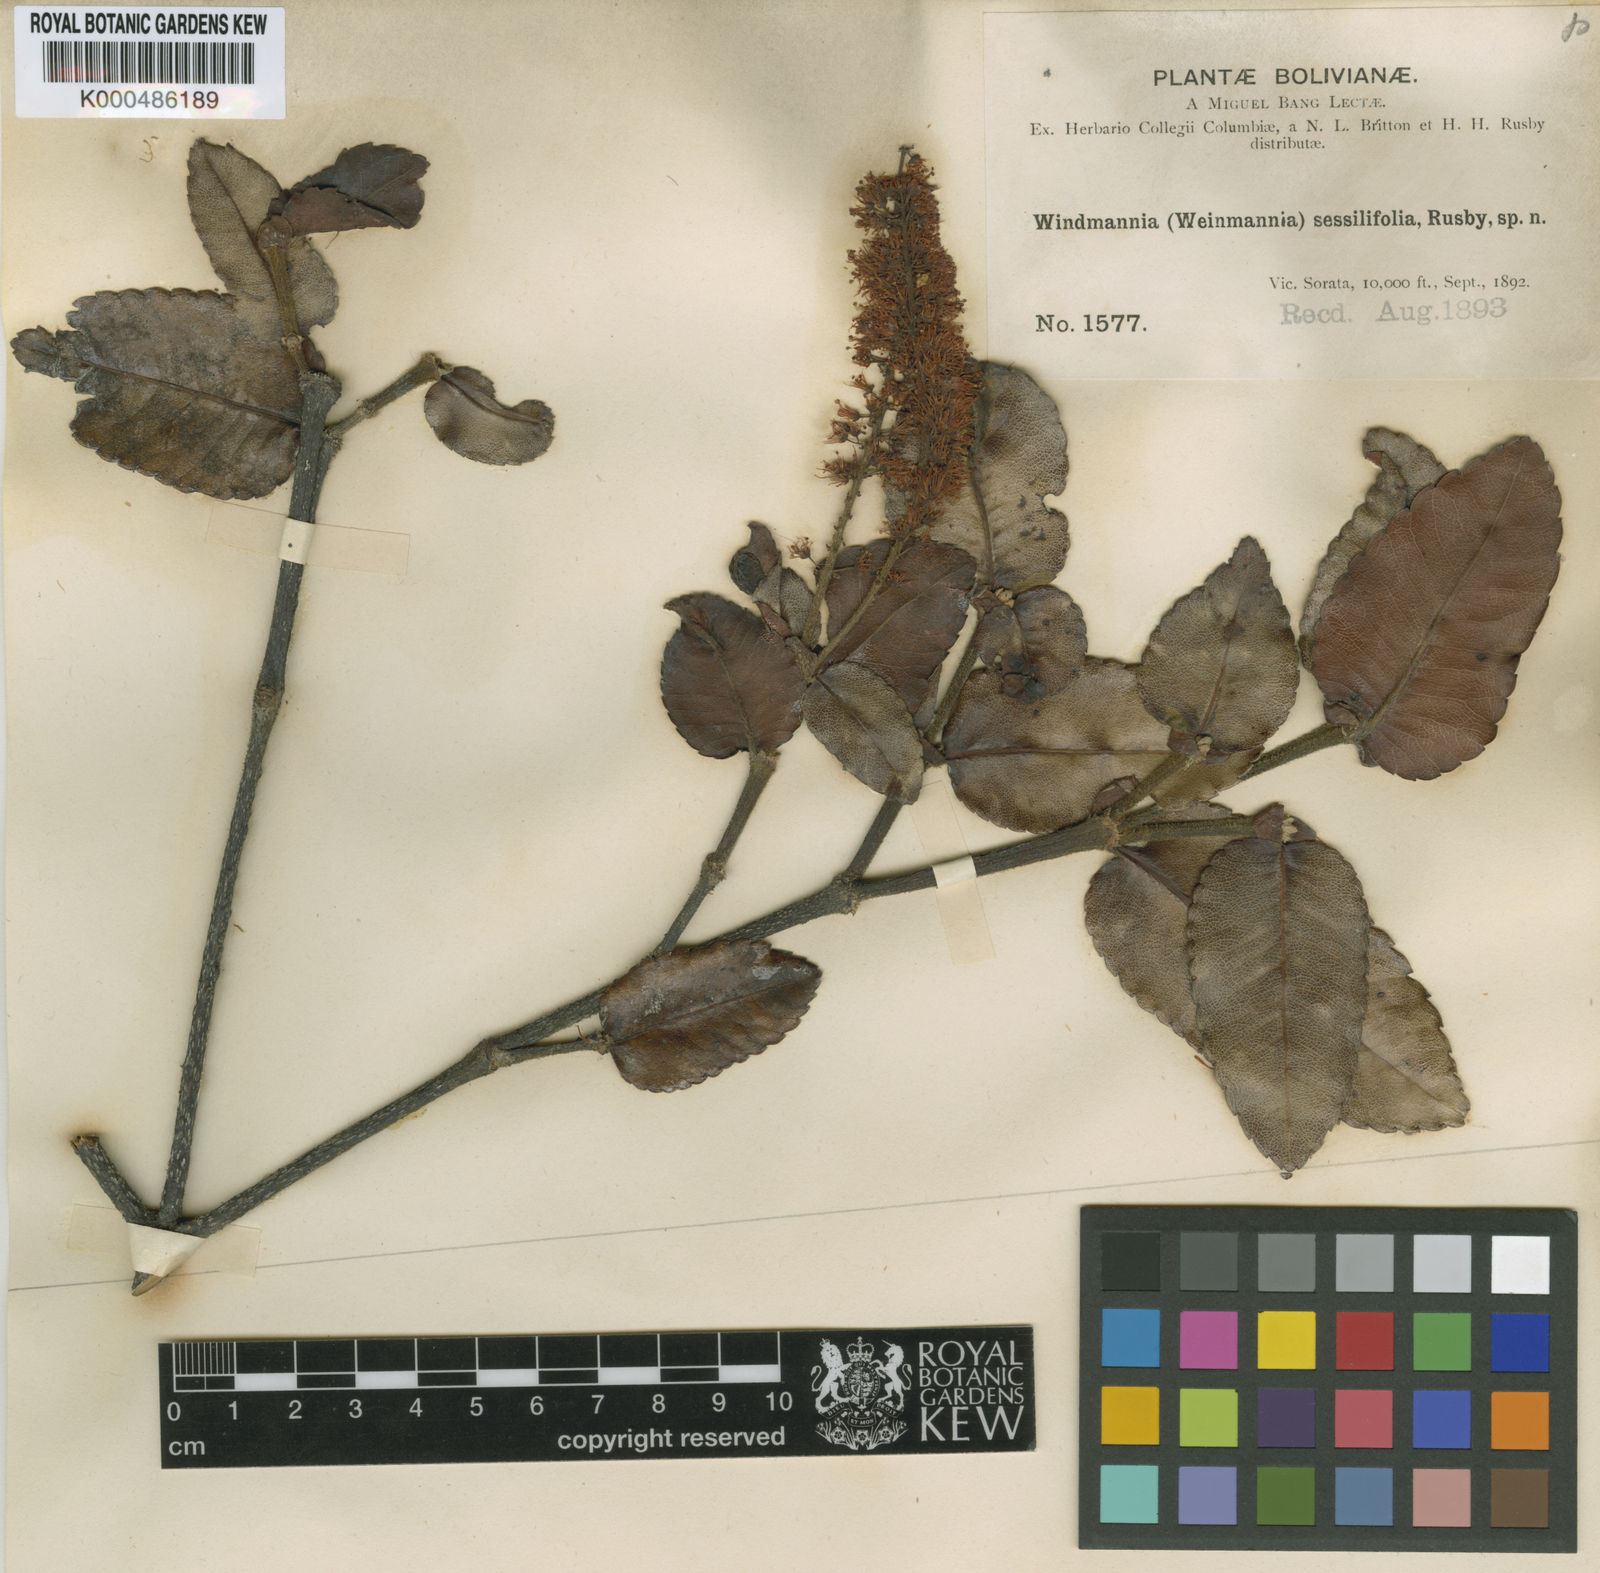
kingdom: Plantae
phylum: Tracheophyta
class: Magnoliopsida
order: Oxalidales
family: Cunoniaceae
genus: Weinmannia
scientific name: Weinmannia crassifolia
